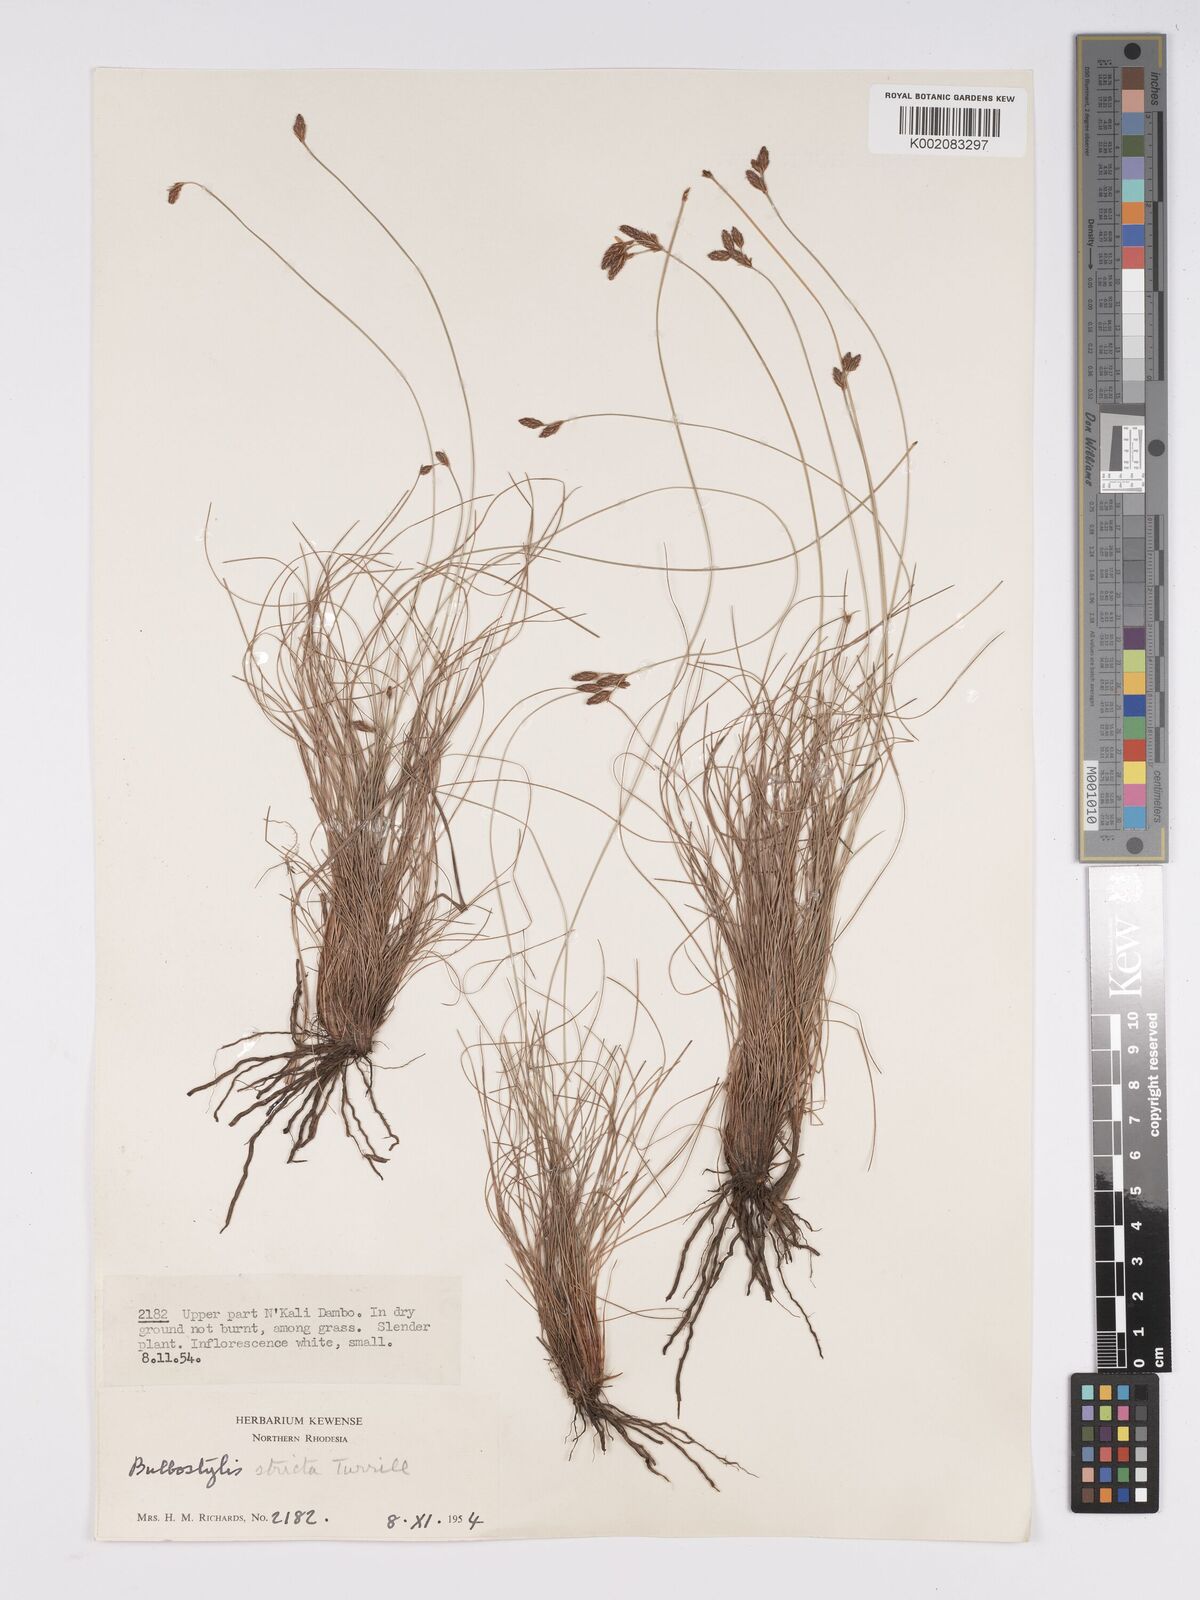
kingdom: Plantae
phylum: Tracheophyta
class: Liliopsida
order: Poales
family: Cyperaceae
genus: Bulbostylis
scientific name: Bulbostylis schoenoides
